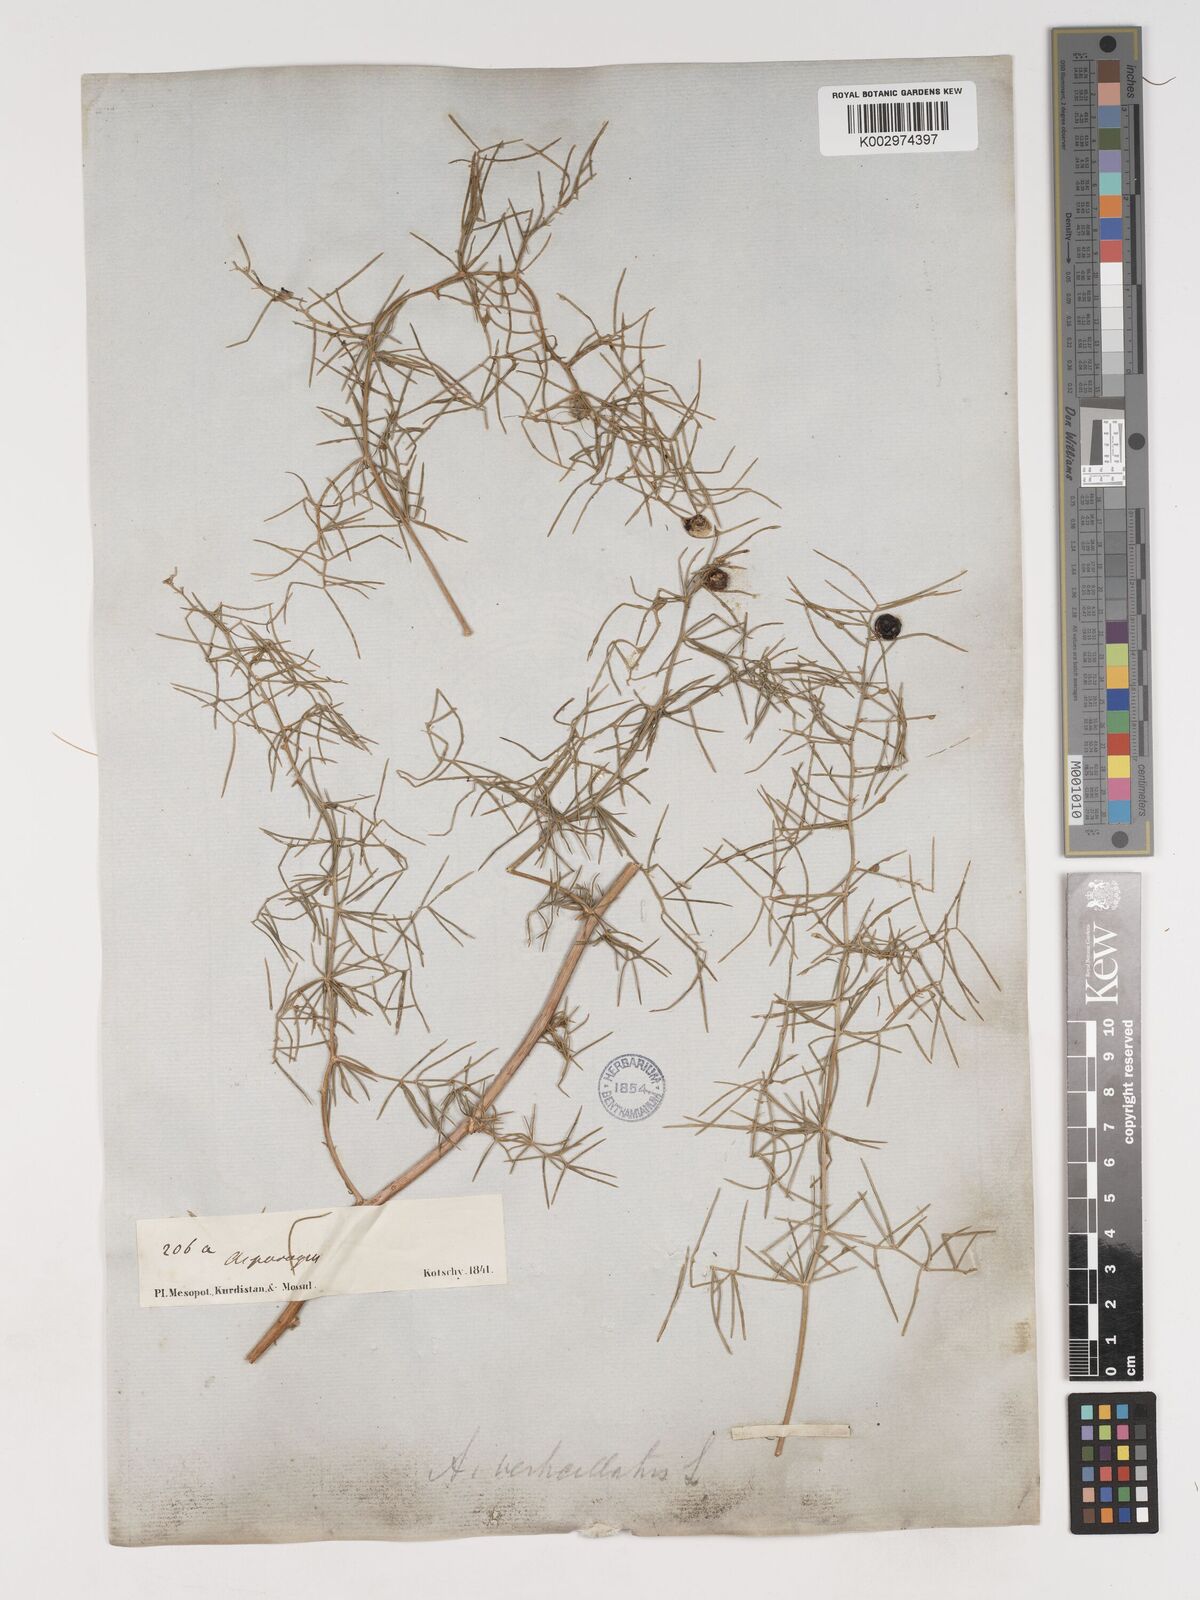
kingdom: Plantae
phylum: Tracheophyta
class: Liliopsida
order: Asparagales
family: Asparagaceae
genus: Asparagus
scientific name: Asparagus verticillatus
